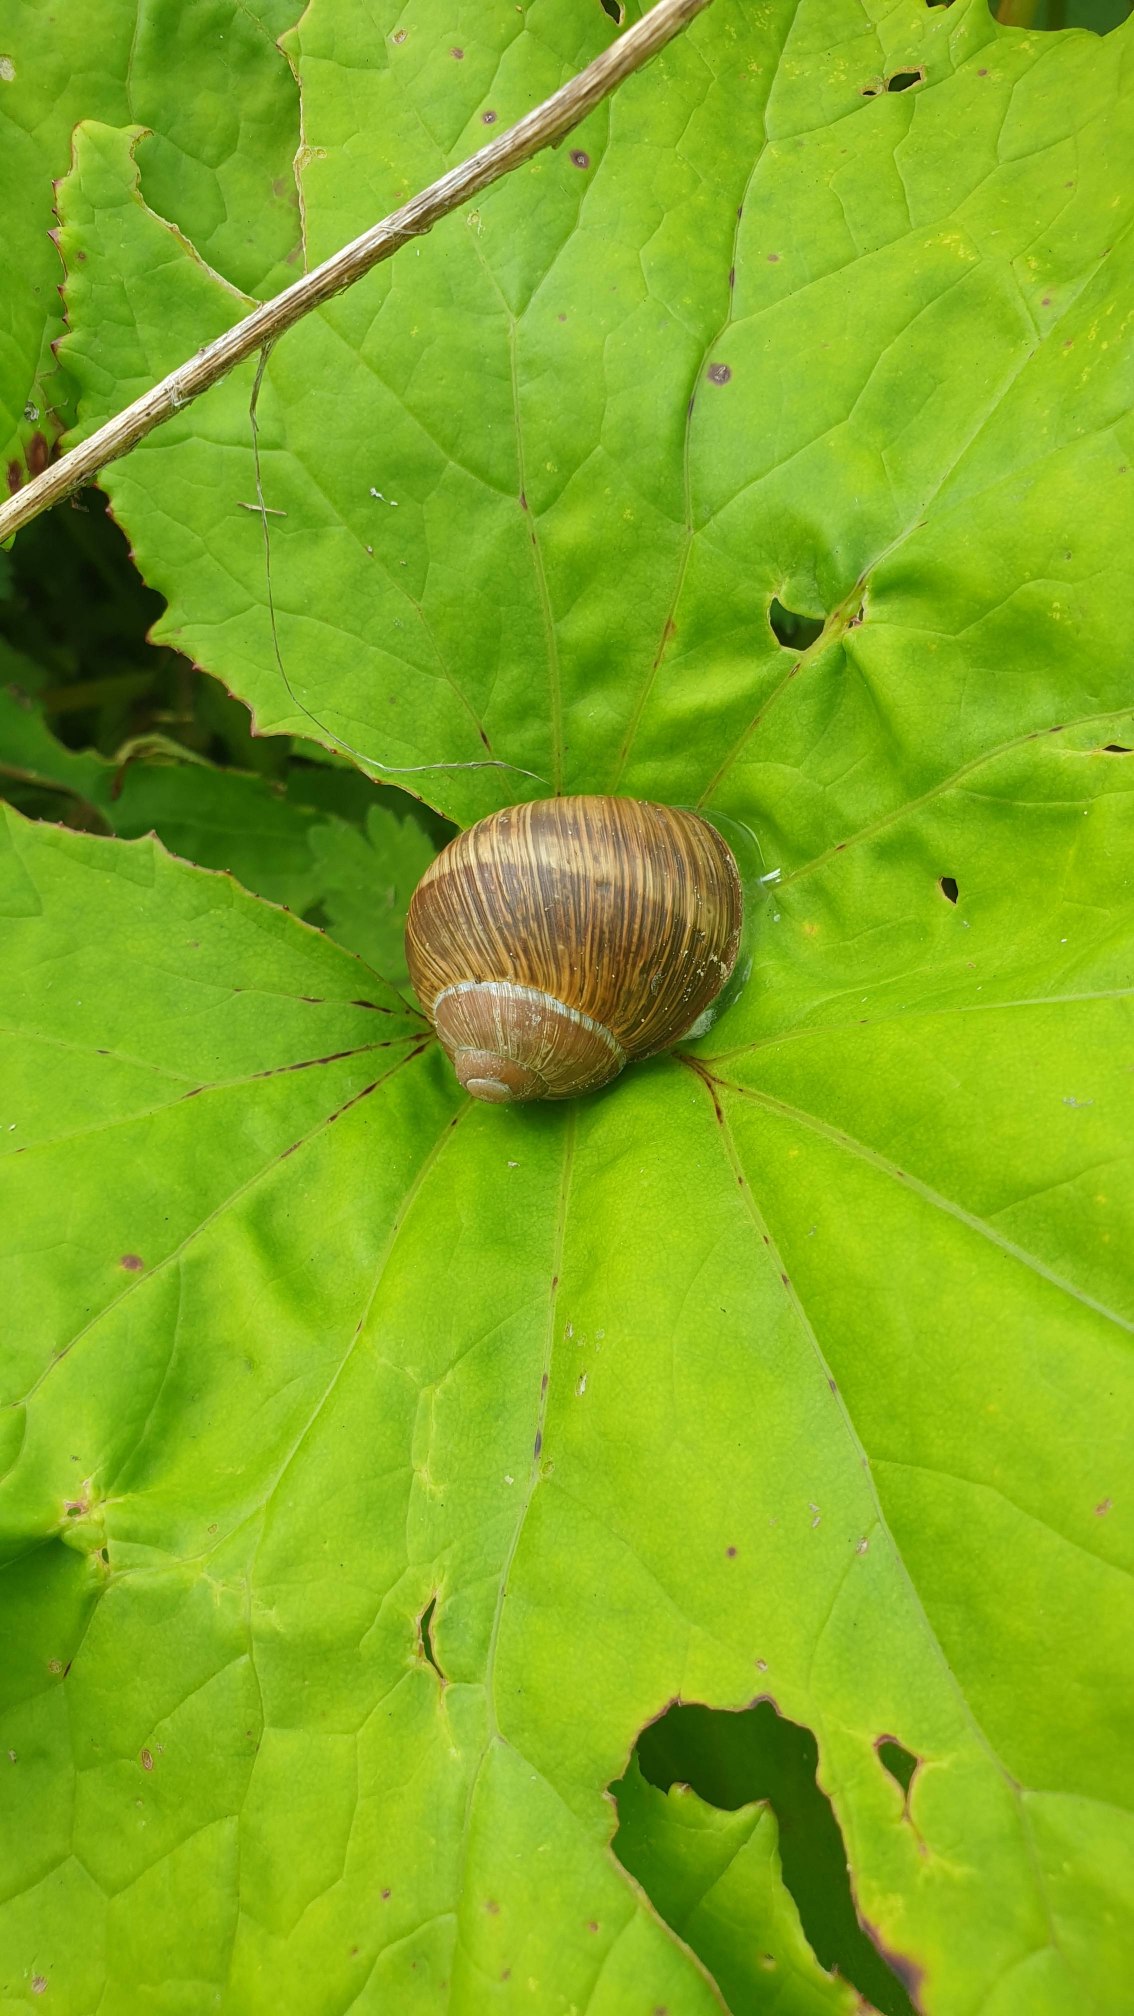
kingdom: Animalia
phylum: Mollusca
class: Gastropoda
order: Stylommatophora
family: Helicidae
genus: Helix
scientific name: Helix pomatia
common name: Vinbjergsnegl
